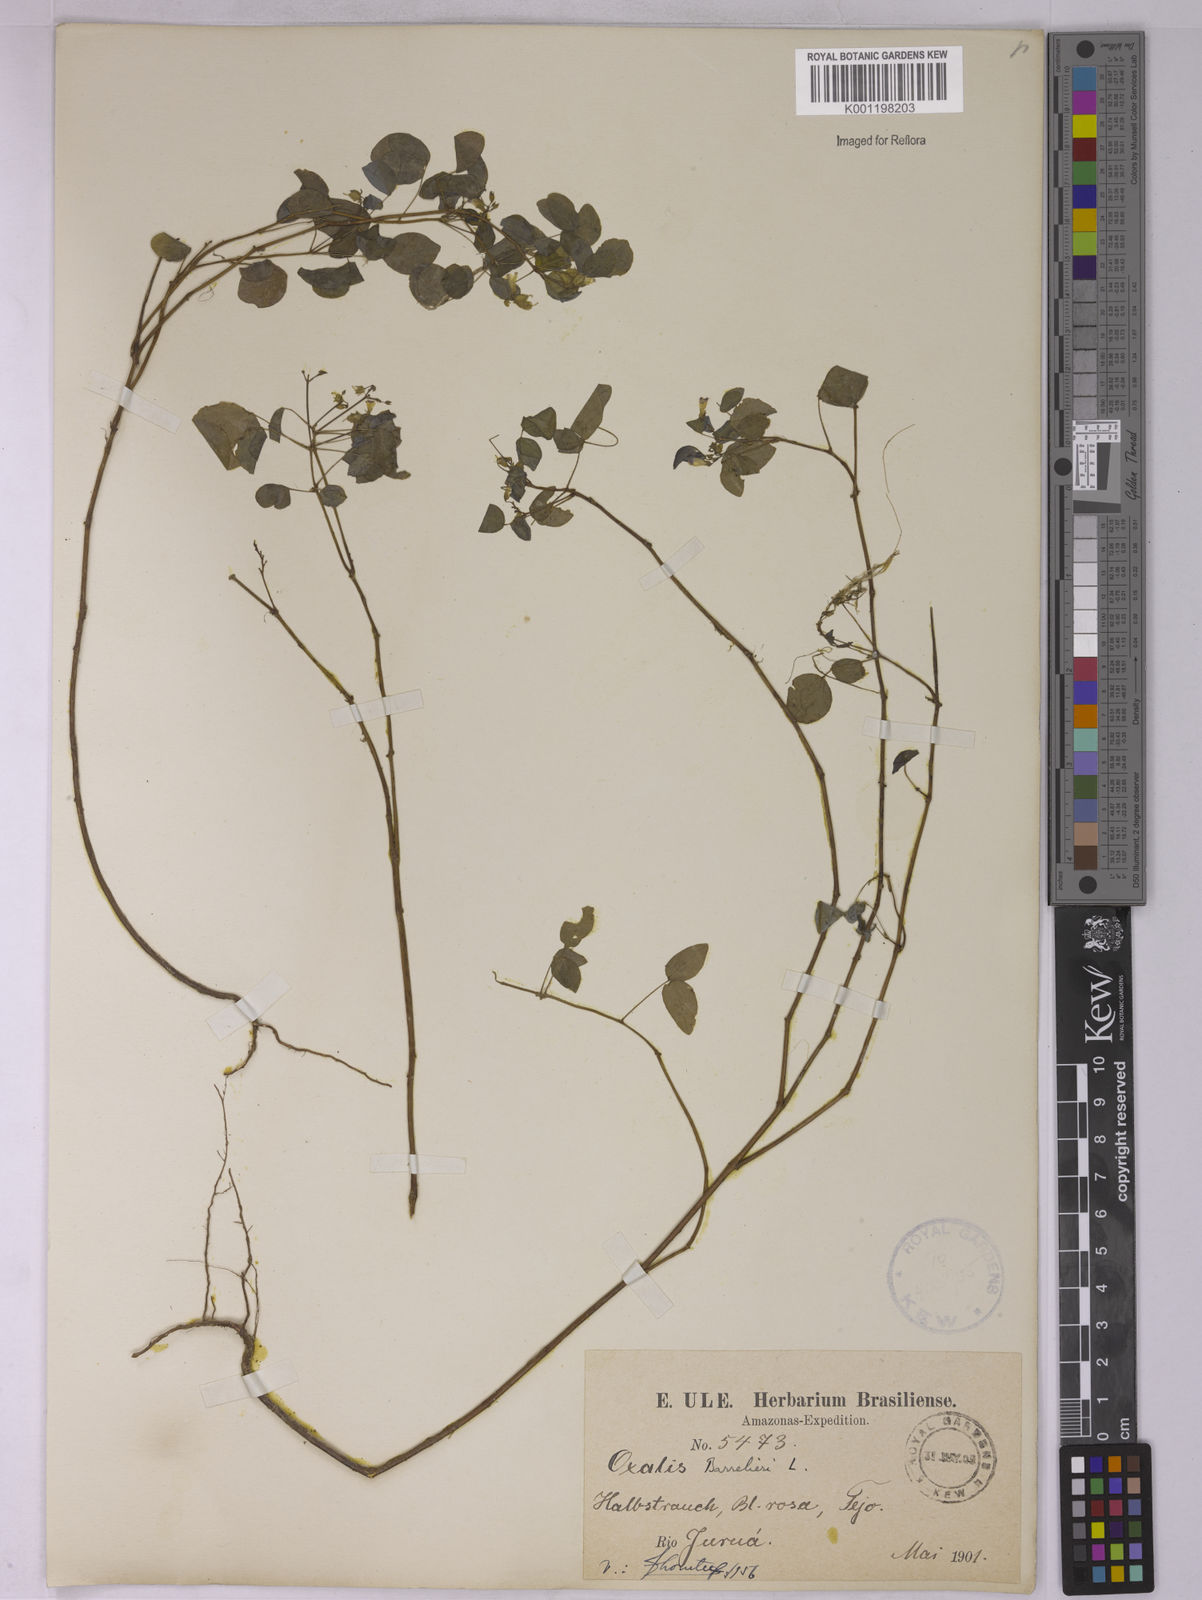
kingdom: Plantae
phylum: Tracheophyta
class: Magnoliopsida
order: Oxalidales
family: Oxalidaceae
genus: Oxalis
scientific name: Oxalis barrelieri
